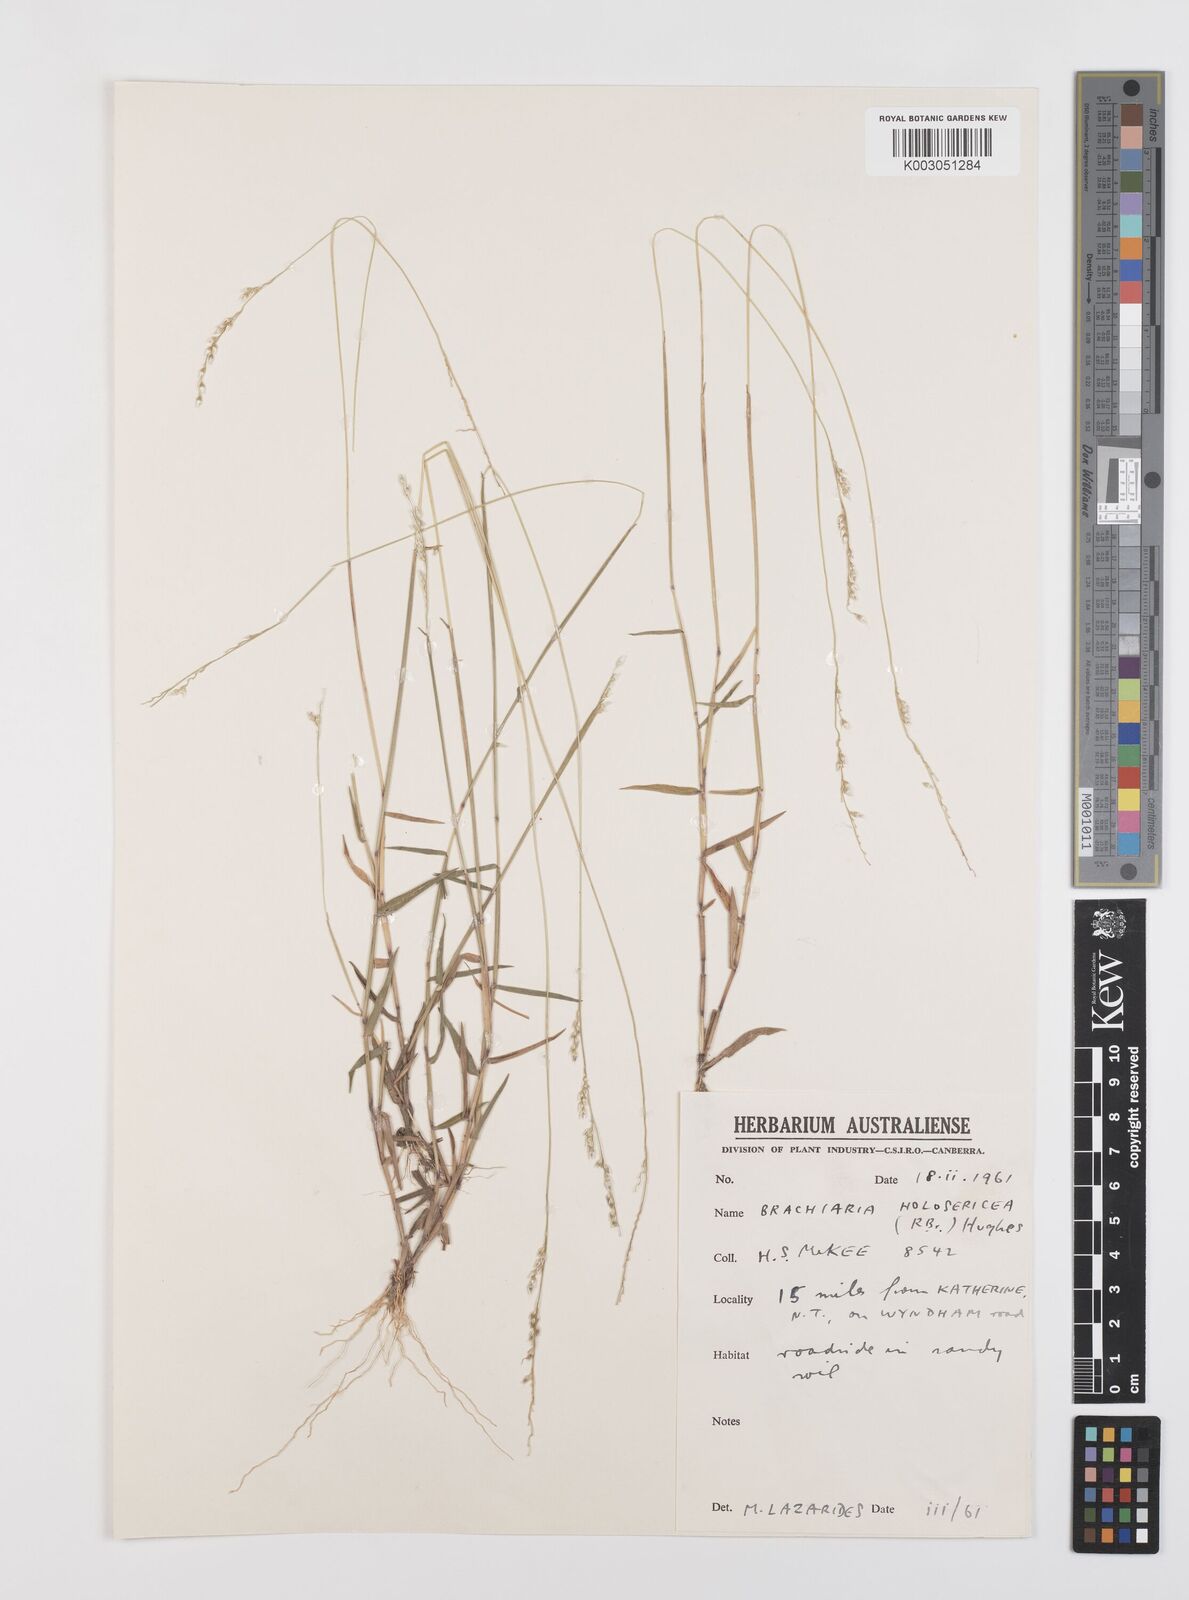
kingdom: Plantae
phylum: Tracheophyta
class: Liliopsida
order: Poales
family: Poaceae
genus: Urochloa
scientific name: Urochloa holosericea
